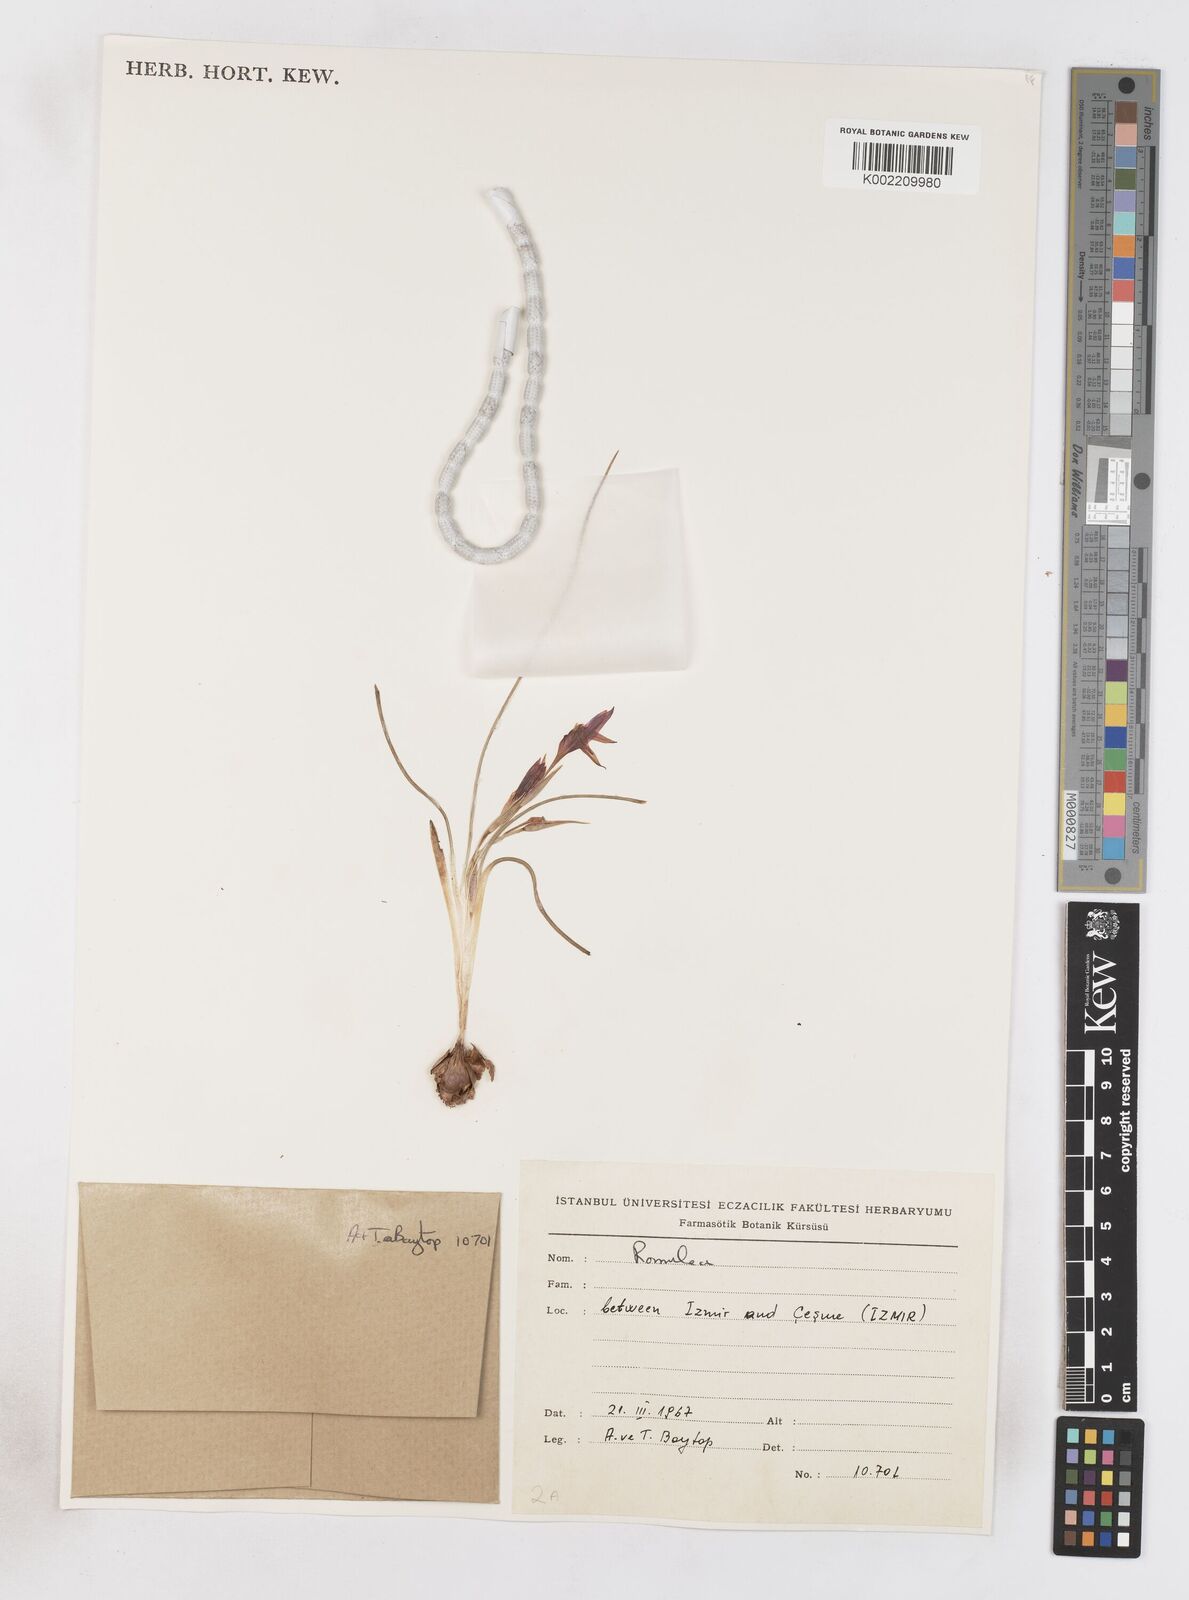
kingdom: Plantae
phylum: Tracheophyta
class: Liliopsida
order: Asparagales
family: Iridaceae
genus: Romulea
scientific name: Romulea tempskyana
